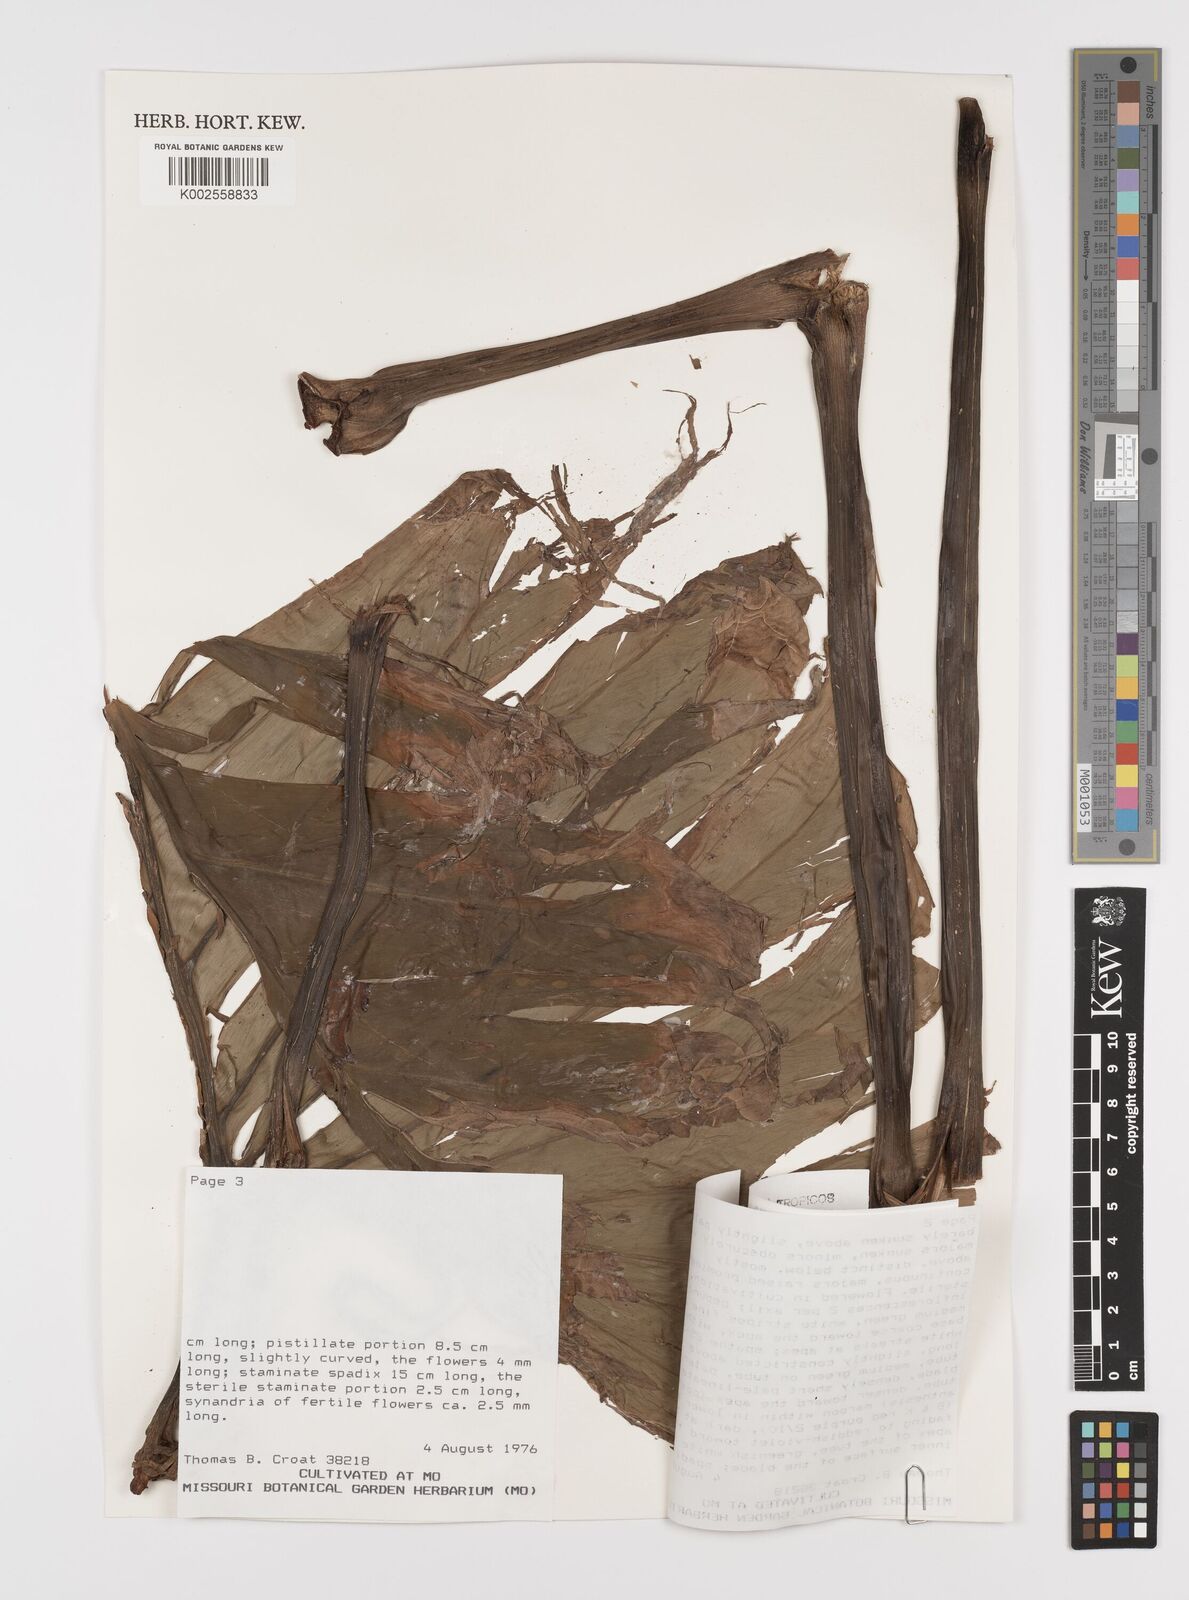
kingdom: Plantae
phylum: Tracheophyta
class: Liliopsida
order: Alismatales
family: Araceae
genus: Philodendron
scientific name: Philodendron findens
